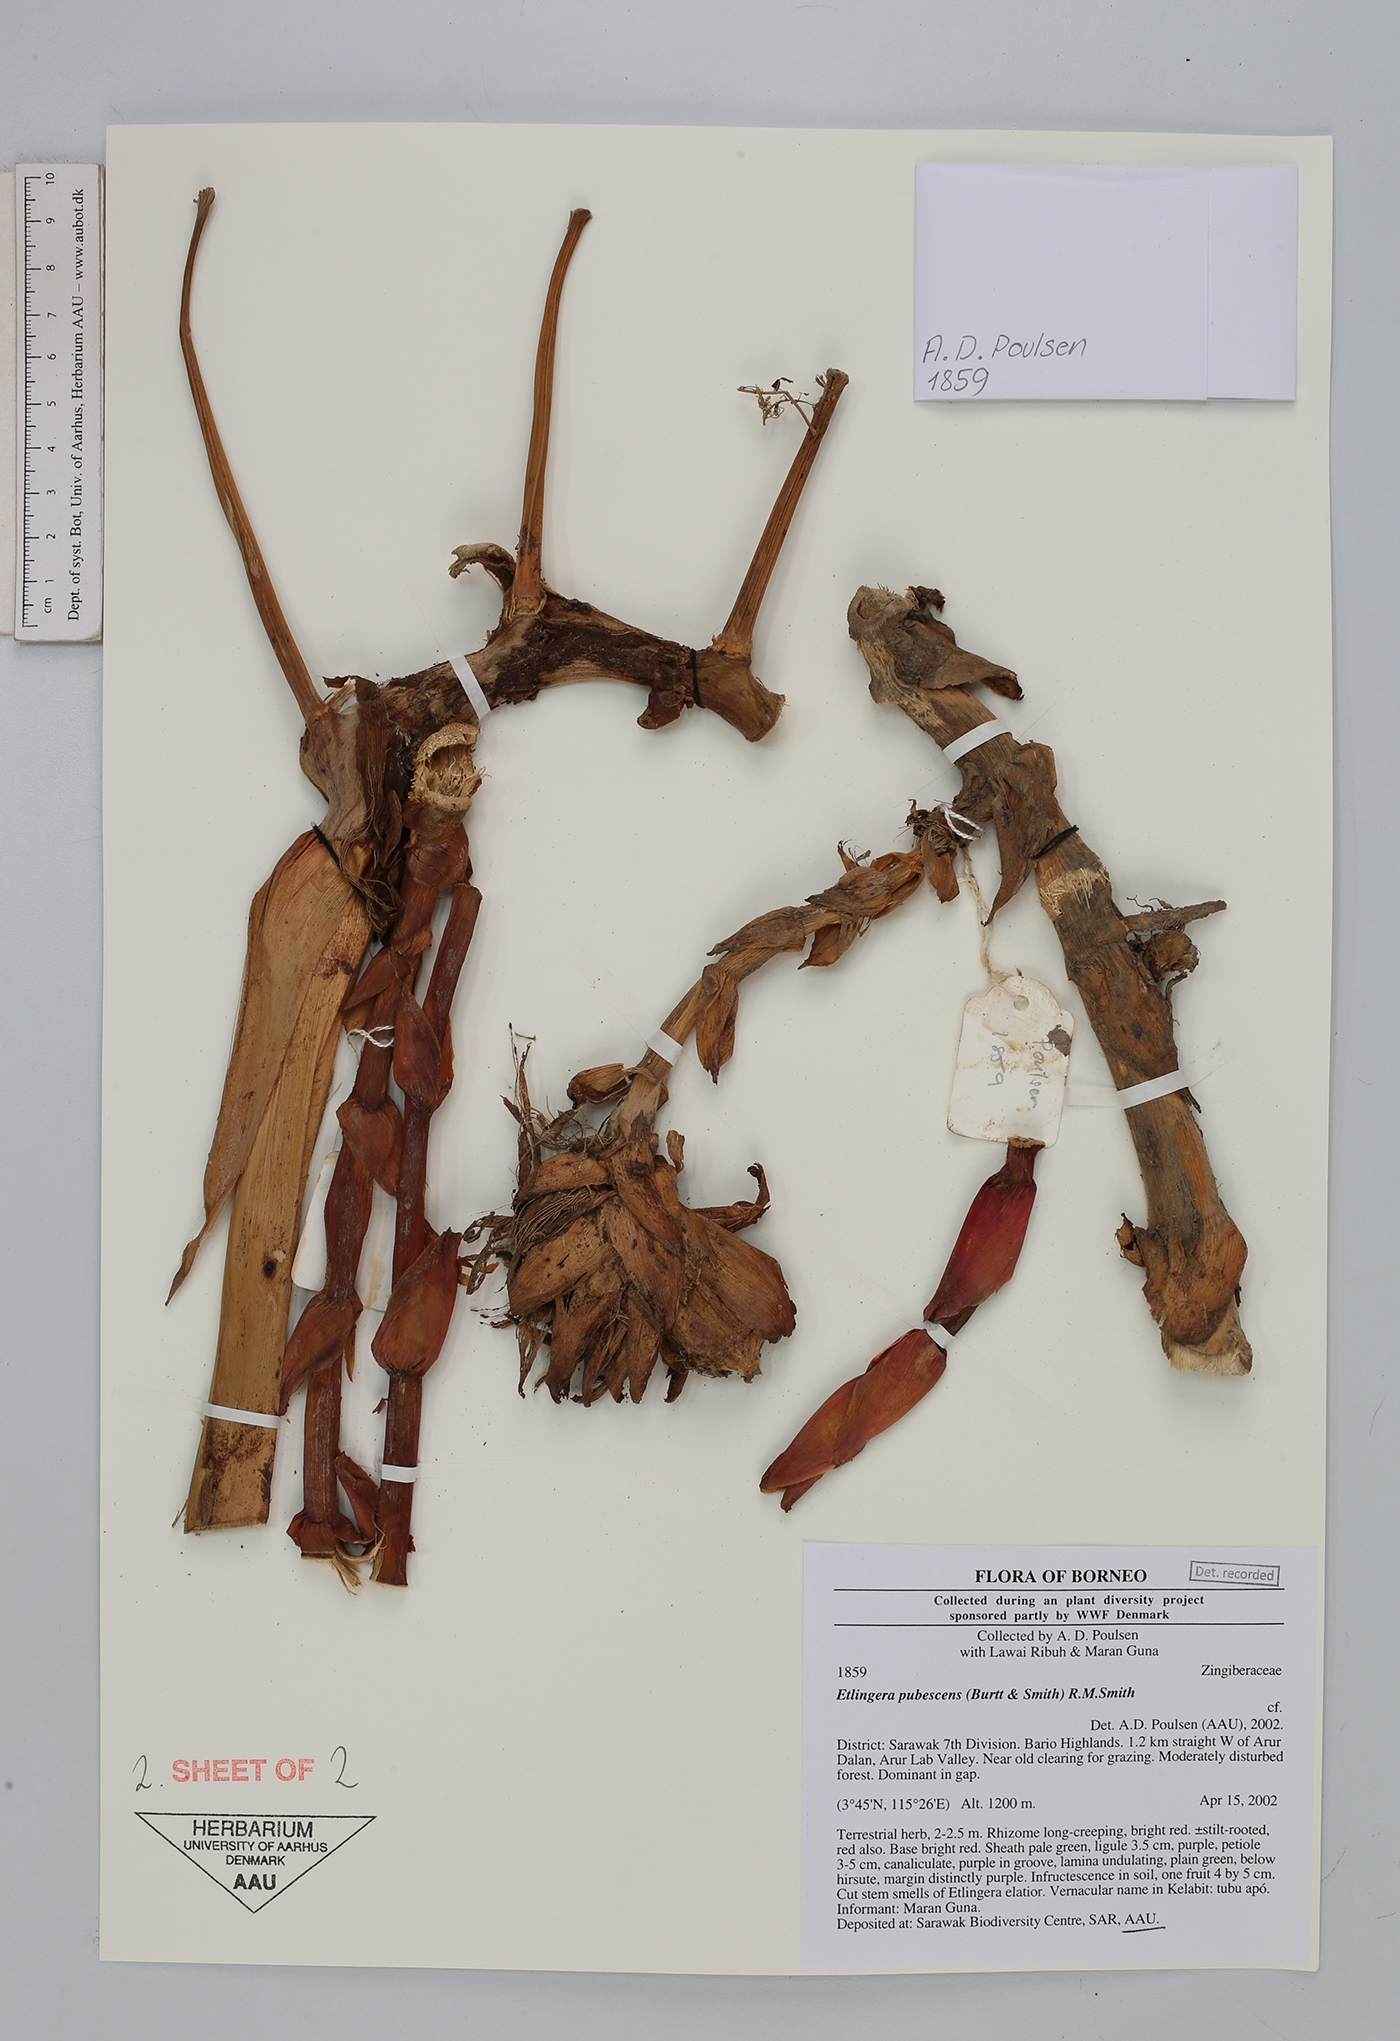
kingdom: Plantae
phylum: Tracheophyta
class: Liliopsida
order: Zingiberales
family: Zingiberaceae
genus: Etlingera
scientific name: Etlingera pubescens
